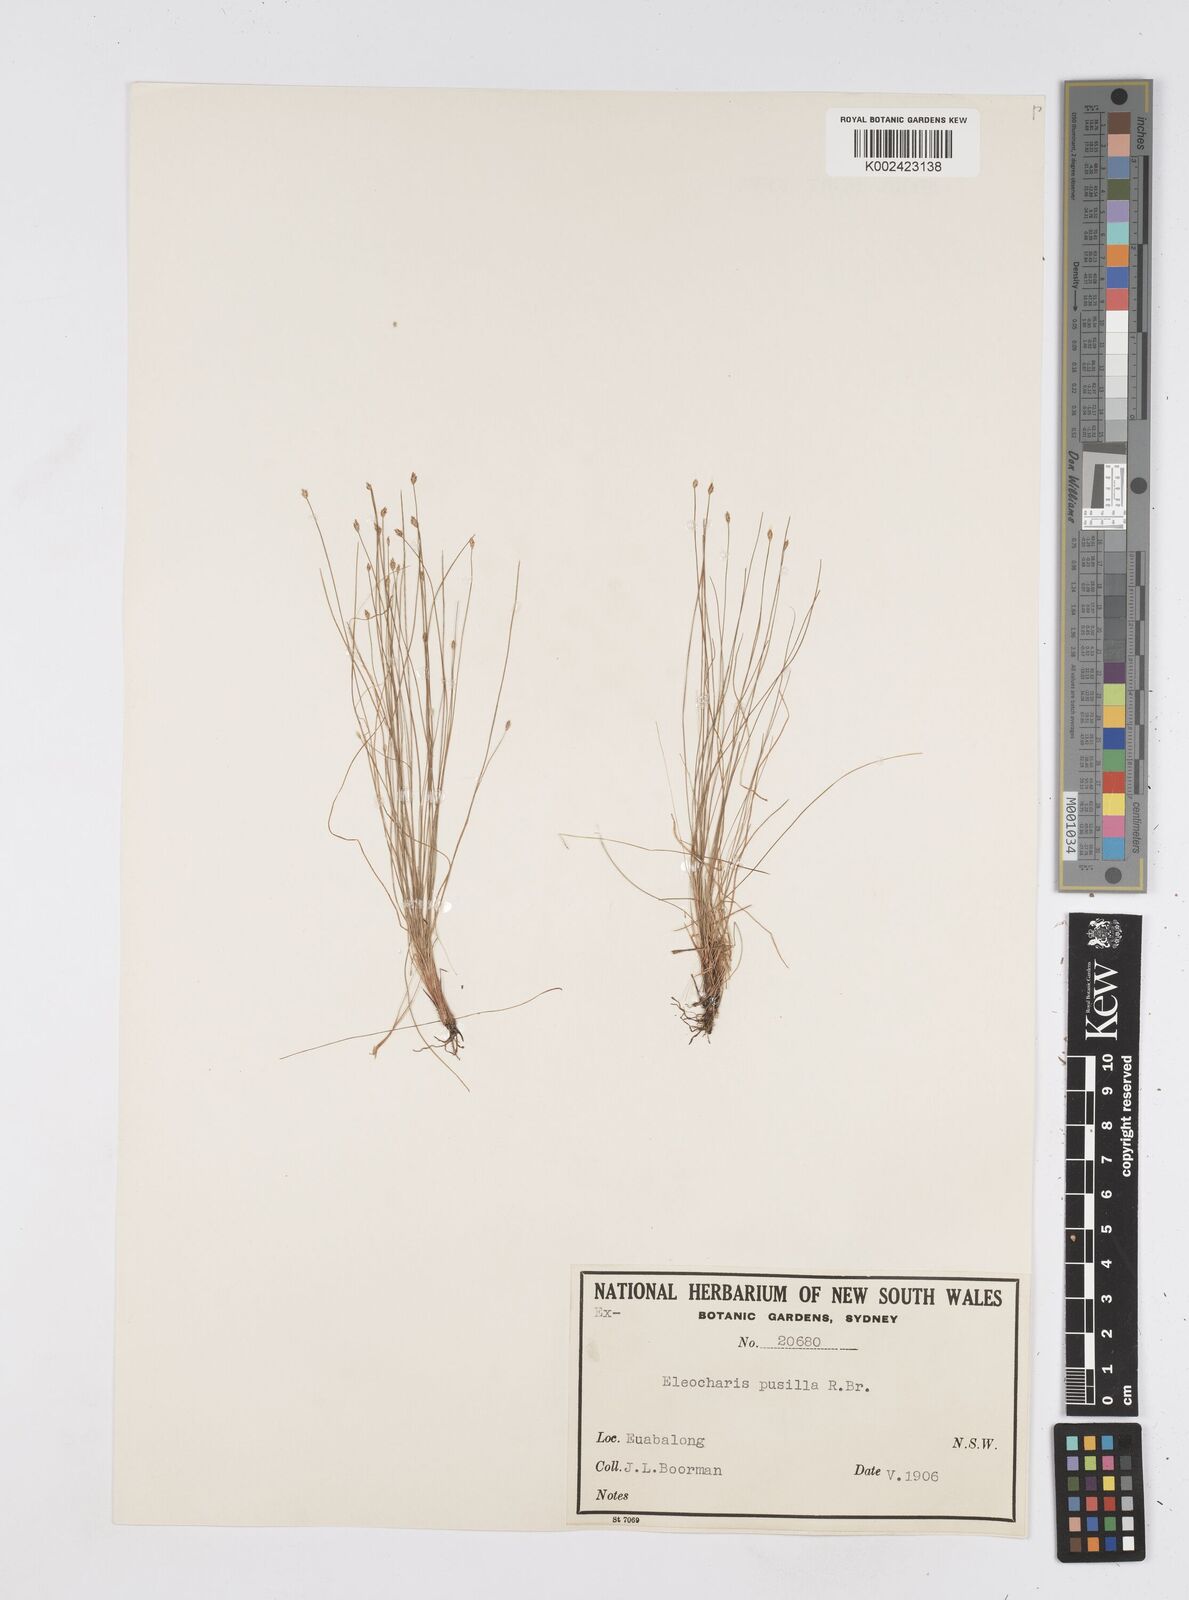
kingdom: Plantae
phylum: Tracheophyta
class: Liliopsida
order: Poales
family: Cyperaceae
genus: Eleocharis
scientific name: Eleocharis pusilla
